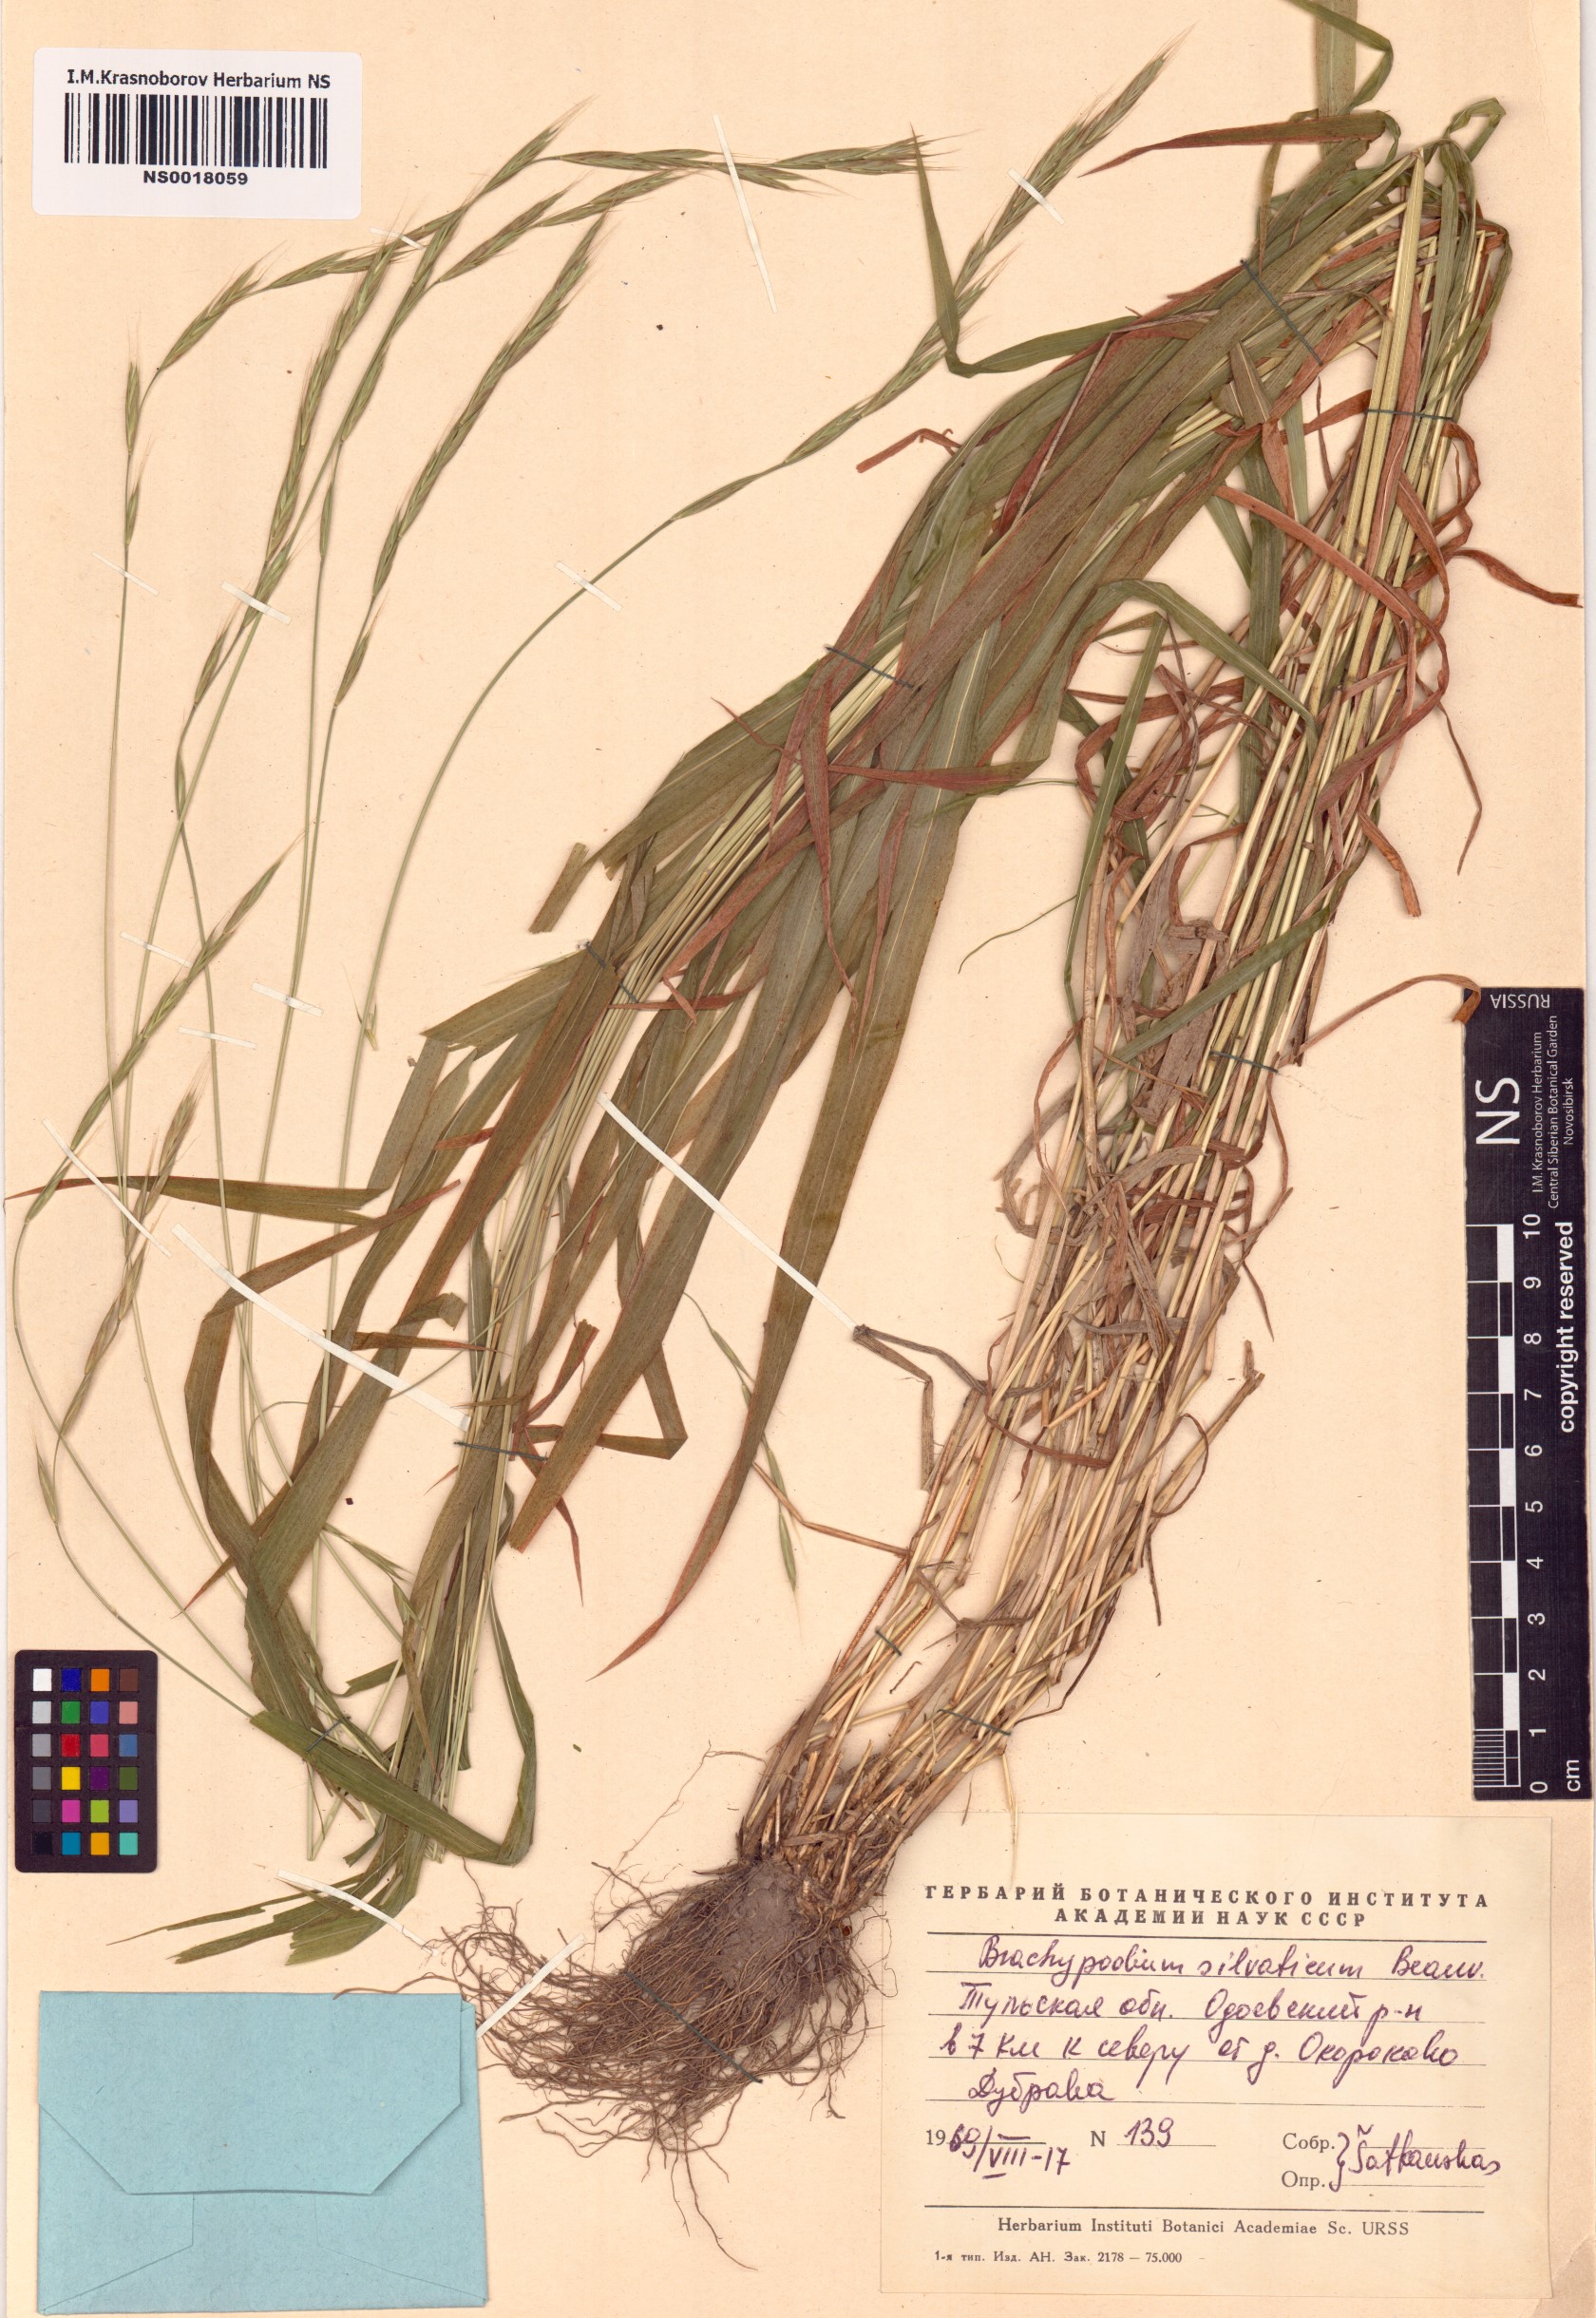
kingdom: Plantae
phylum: Tracheophyta
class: Liliopsida
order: Poales
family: Poaceae
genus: Brachypodium
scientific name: Brachypodium sylvaticum
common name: False-brome
